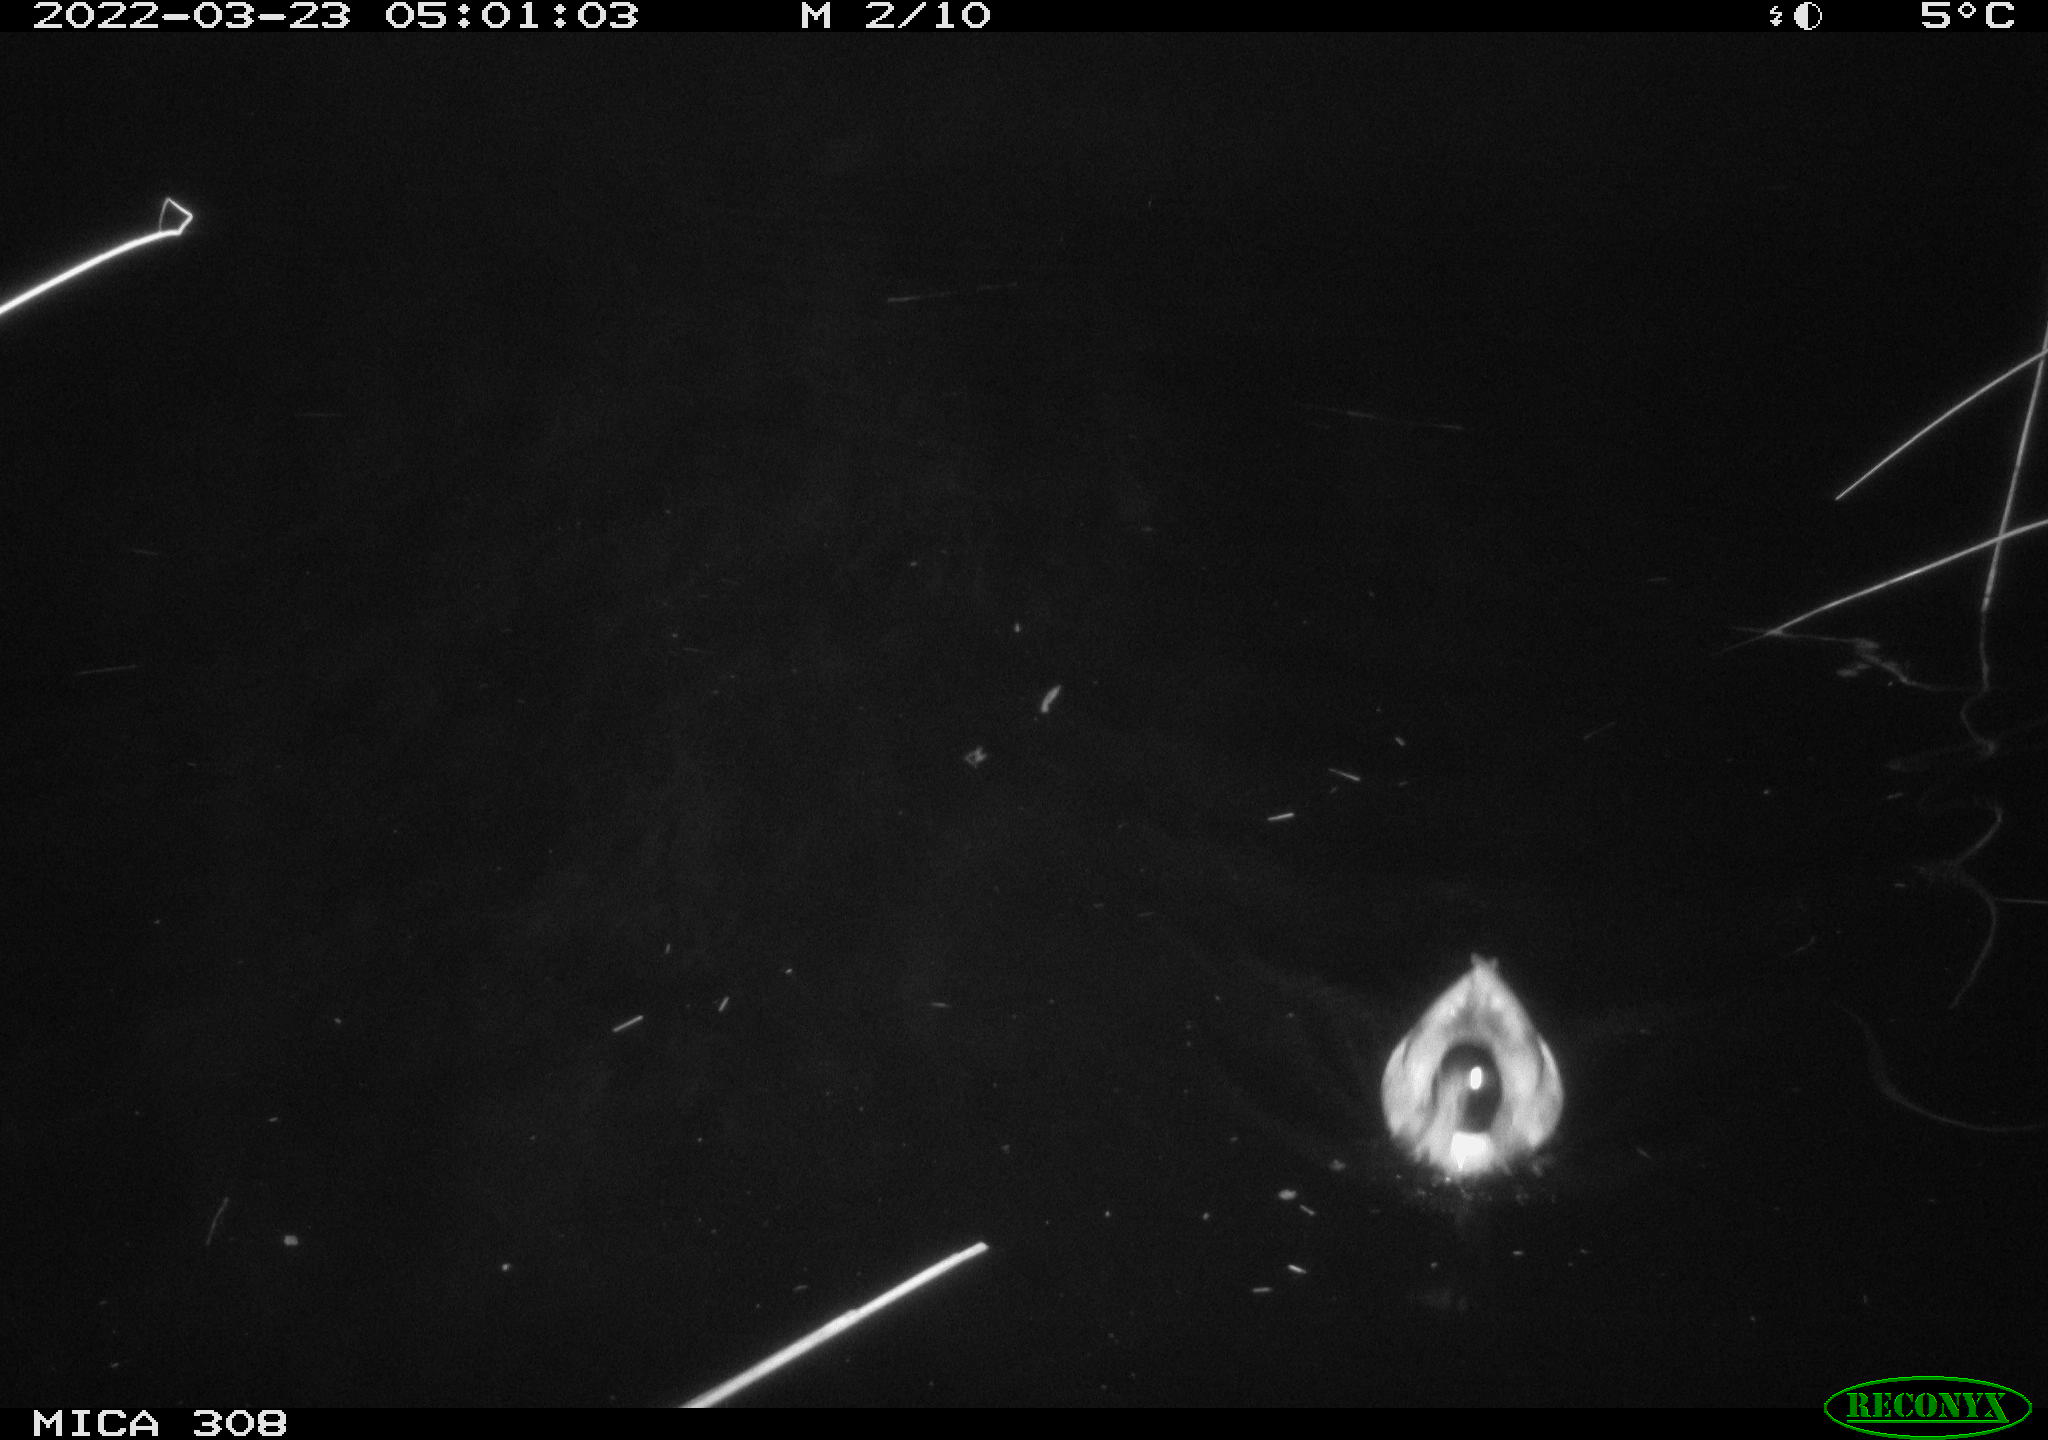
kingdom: Animalia
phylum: Chordata
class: Aves
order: Anseriformes
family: Anatidae
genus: Anas
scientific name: Anas platyrhynchos
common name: Mallard
